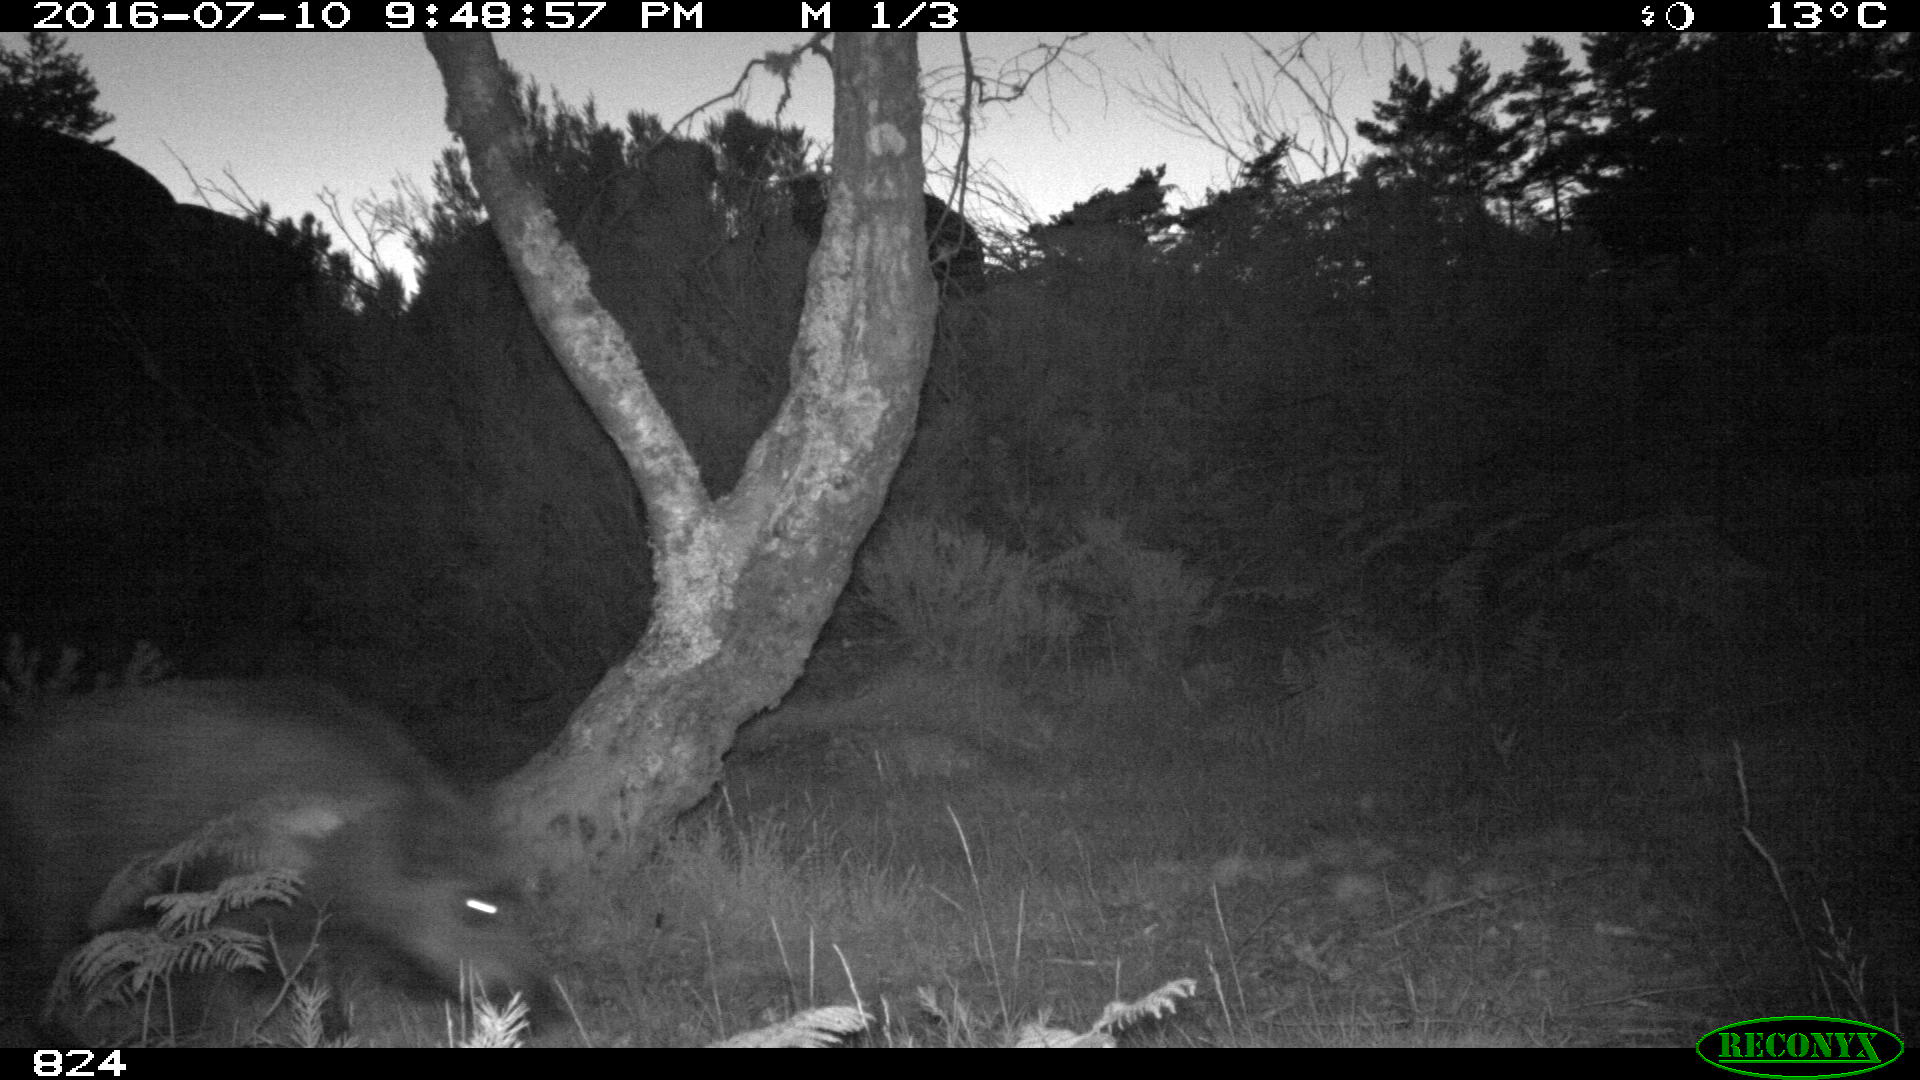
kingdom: Animalia
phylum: Chordata
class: Mammalia
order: Artiodactyla
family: Suidae
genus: Sus
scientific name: Sus scrofa
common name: Wild boar
